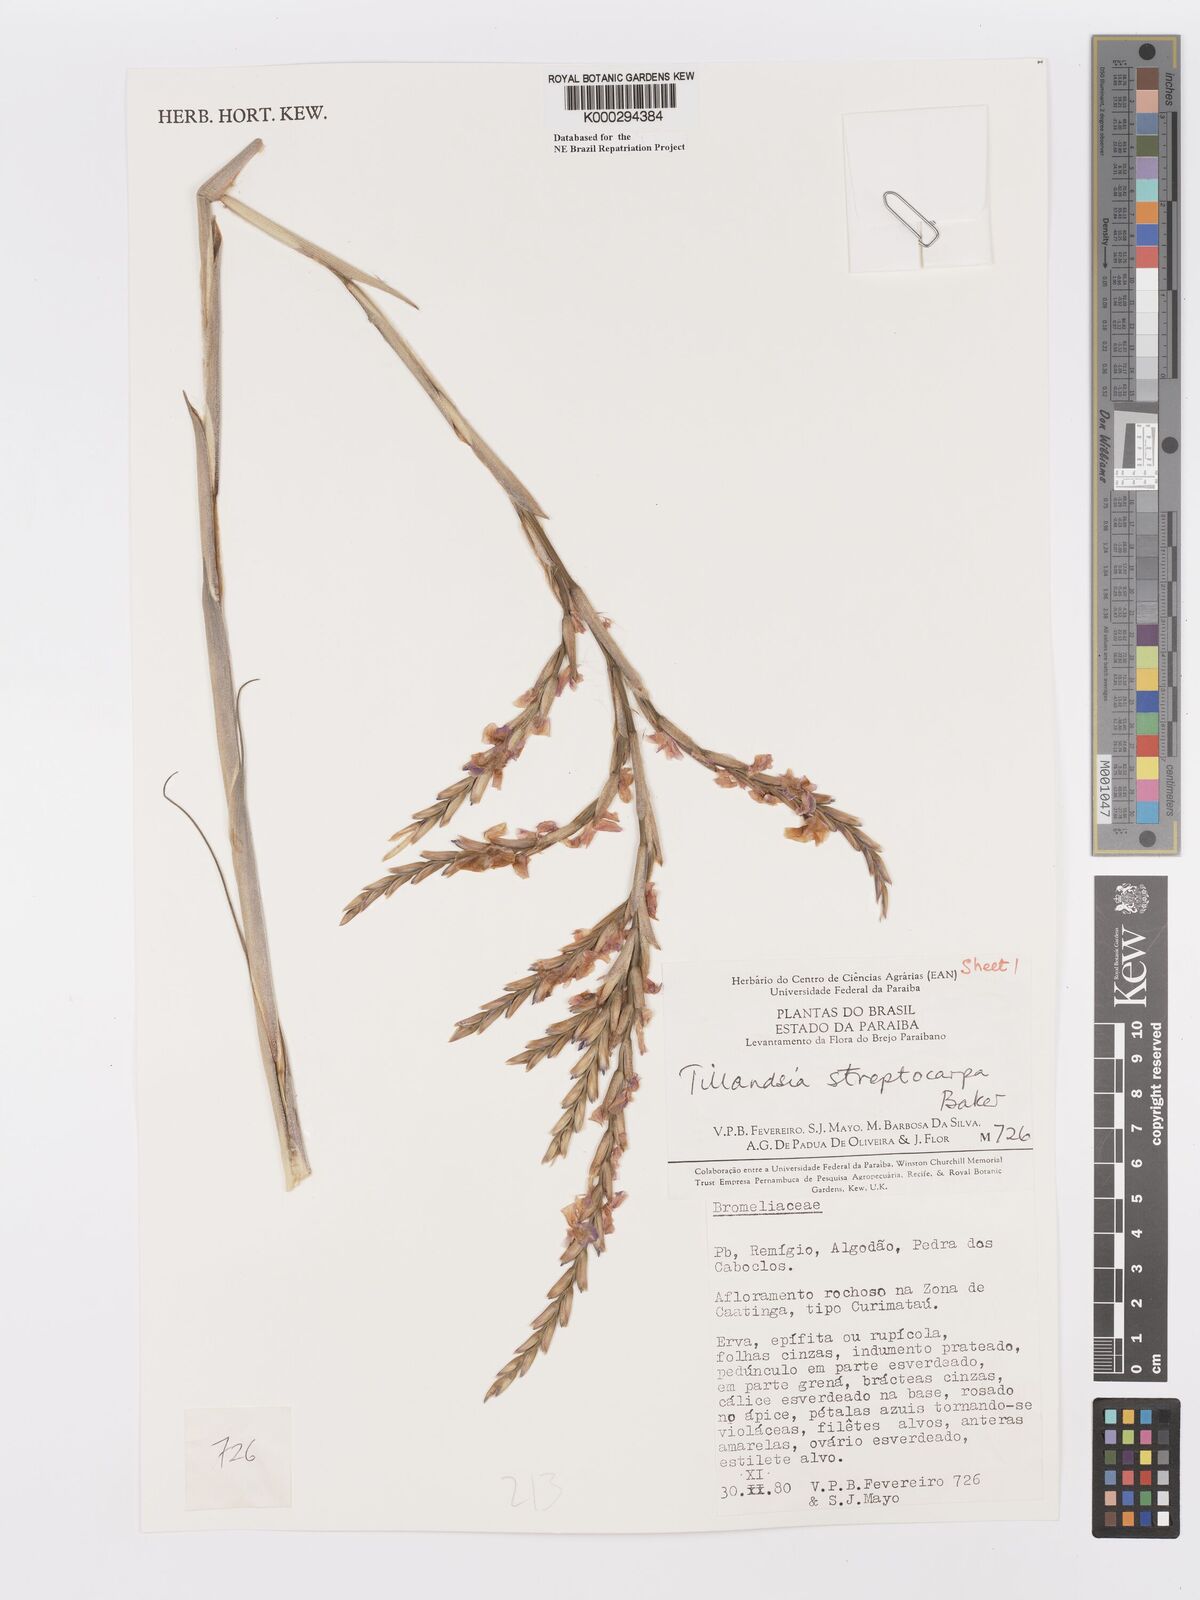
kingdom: Plantae
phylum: Tracheophyta
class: Liliopsida
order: Poales
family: Bromeliaceae
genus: Tillandsia
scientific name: Tillandsia streptocarpa
